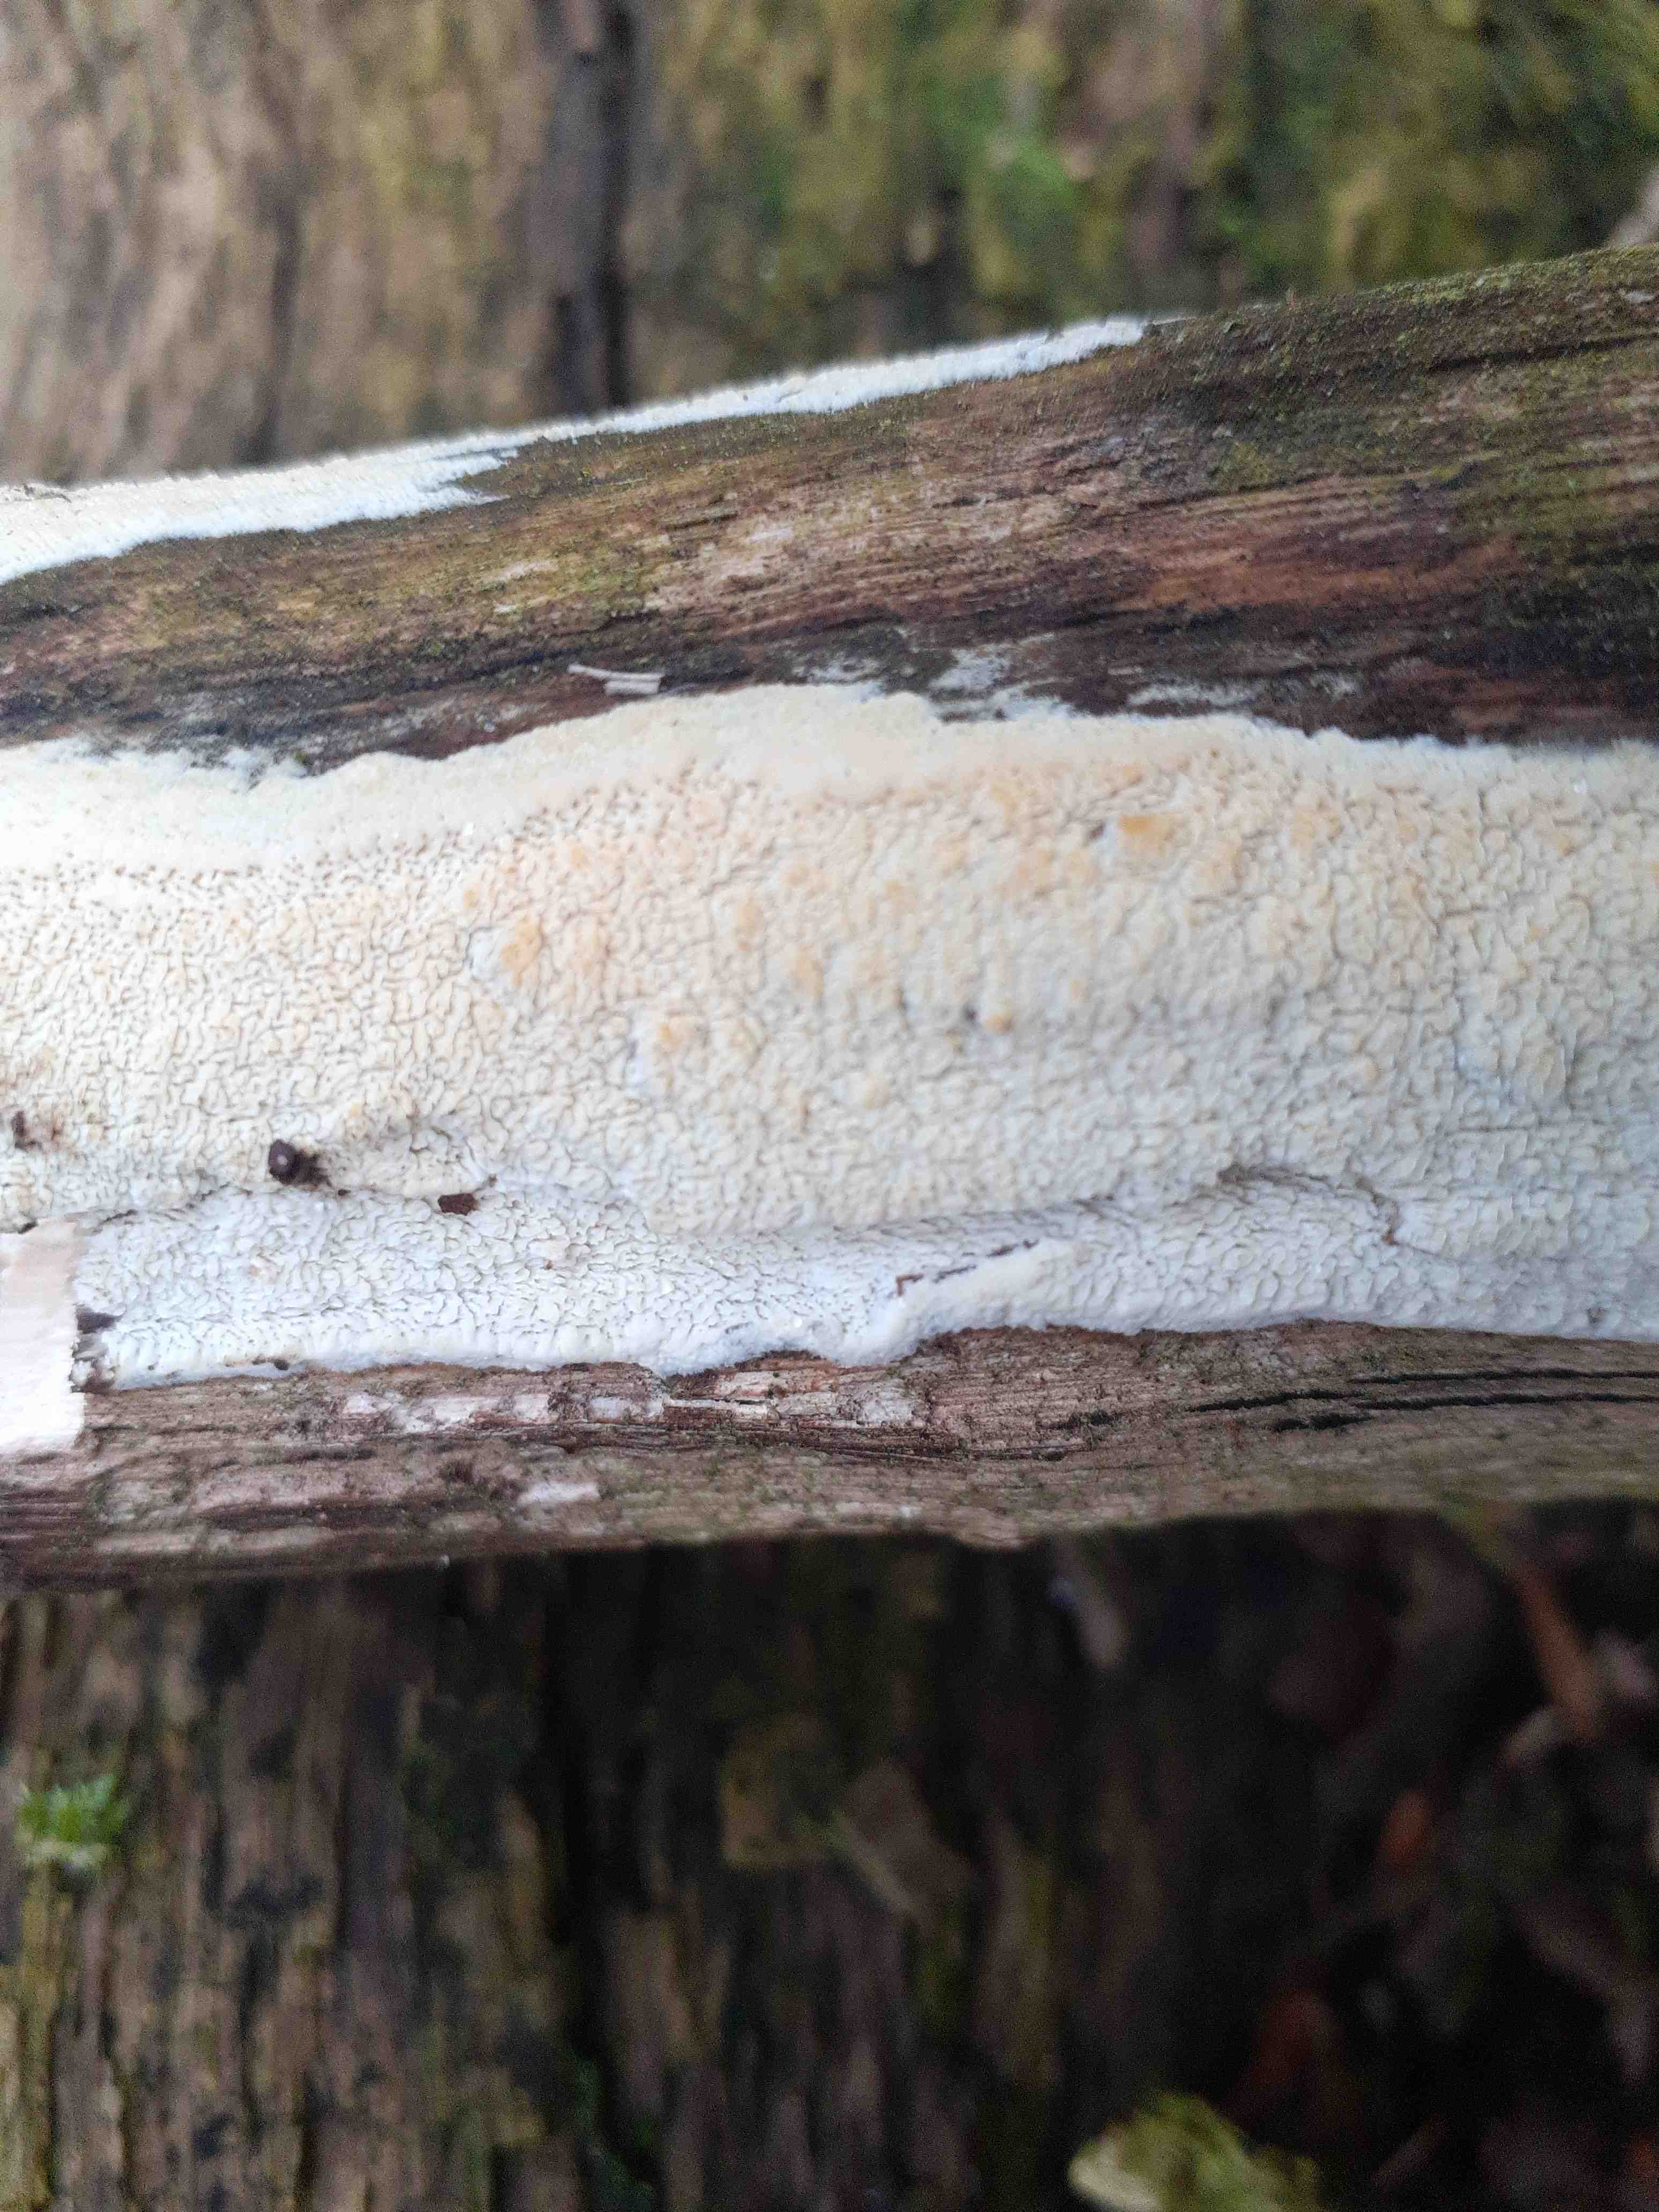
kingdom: Fungi
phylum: Basidiomycota
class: Agaricomycetes
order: Hymenochaetales
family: Hyphodontiaceae
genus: Hyphodontia
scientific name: Hyphodontia quercina
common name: ege-tandsvamp
